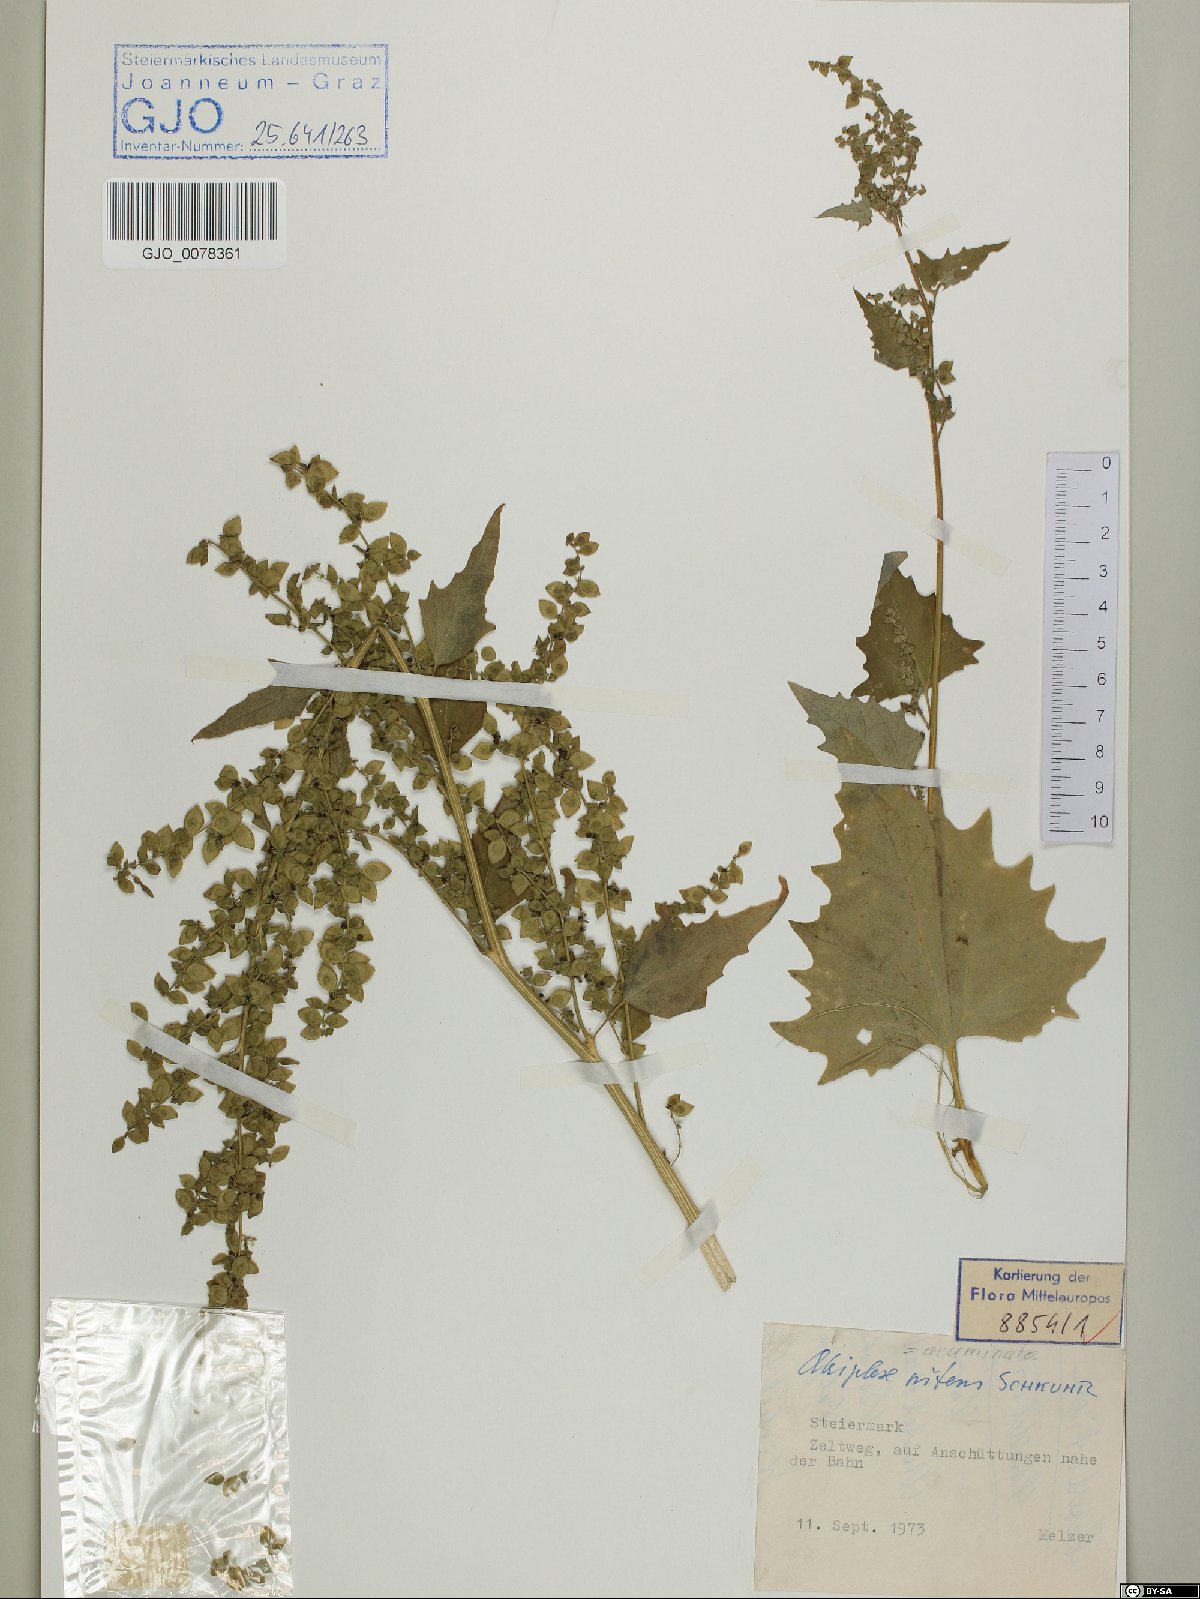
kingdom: Plantae
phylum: Tracheophyta
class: Magnoliopsida
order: Caryophyllales
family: Amaranthaceae
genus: Atriplex
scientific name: Atriplex sagittata
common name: Purple orache
